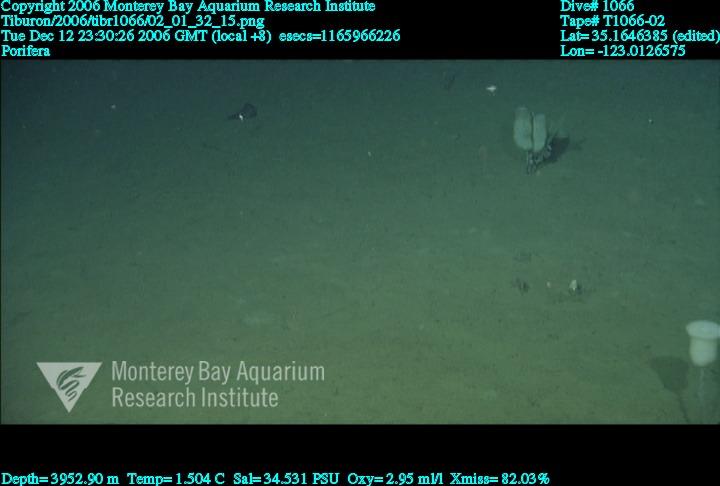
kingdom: Animalia
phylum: Porifera
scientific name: Porifera
